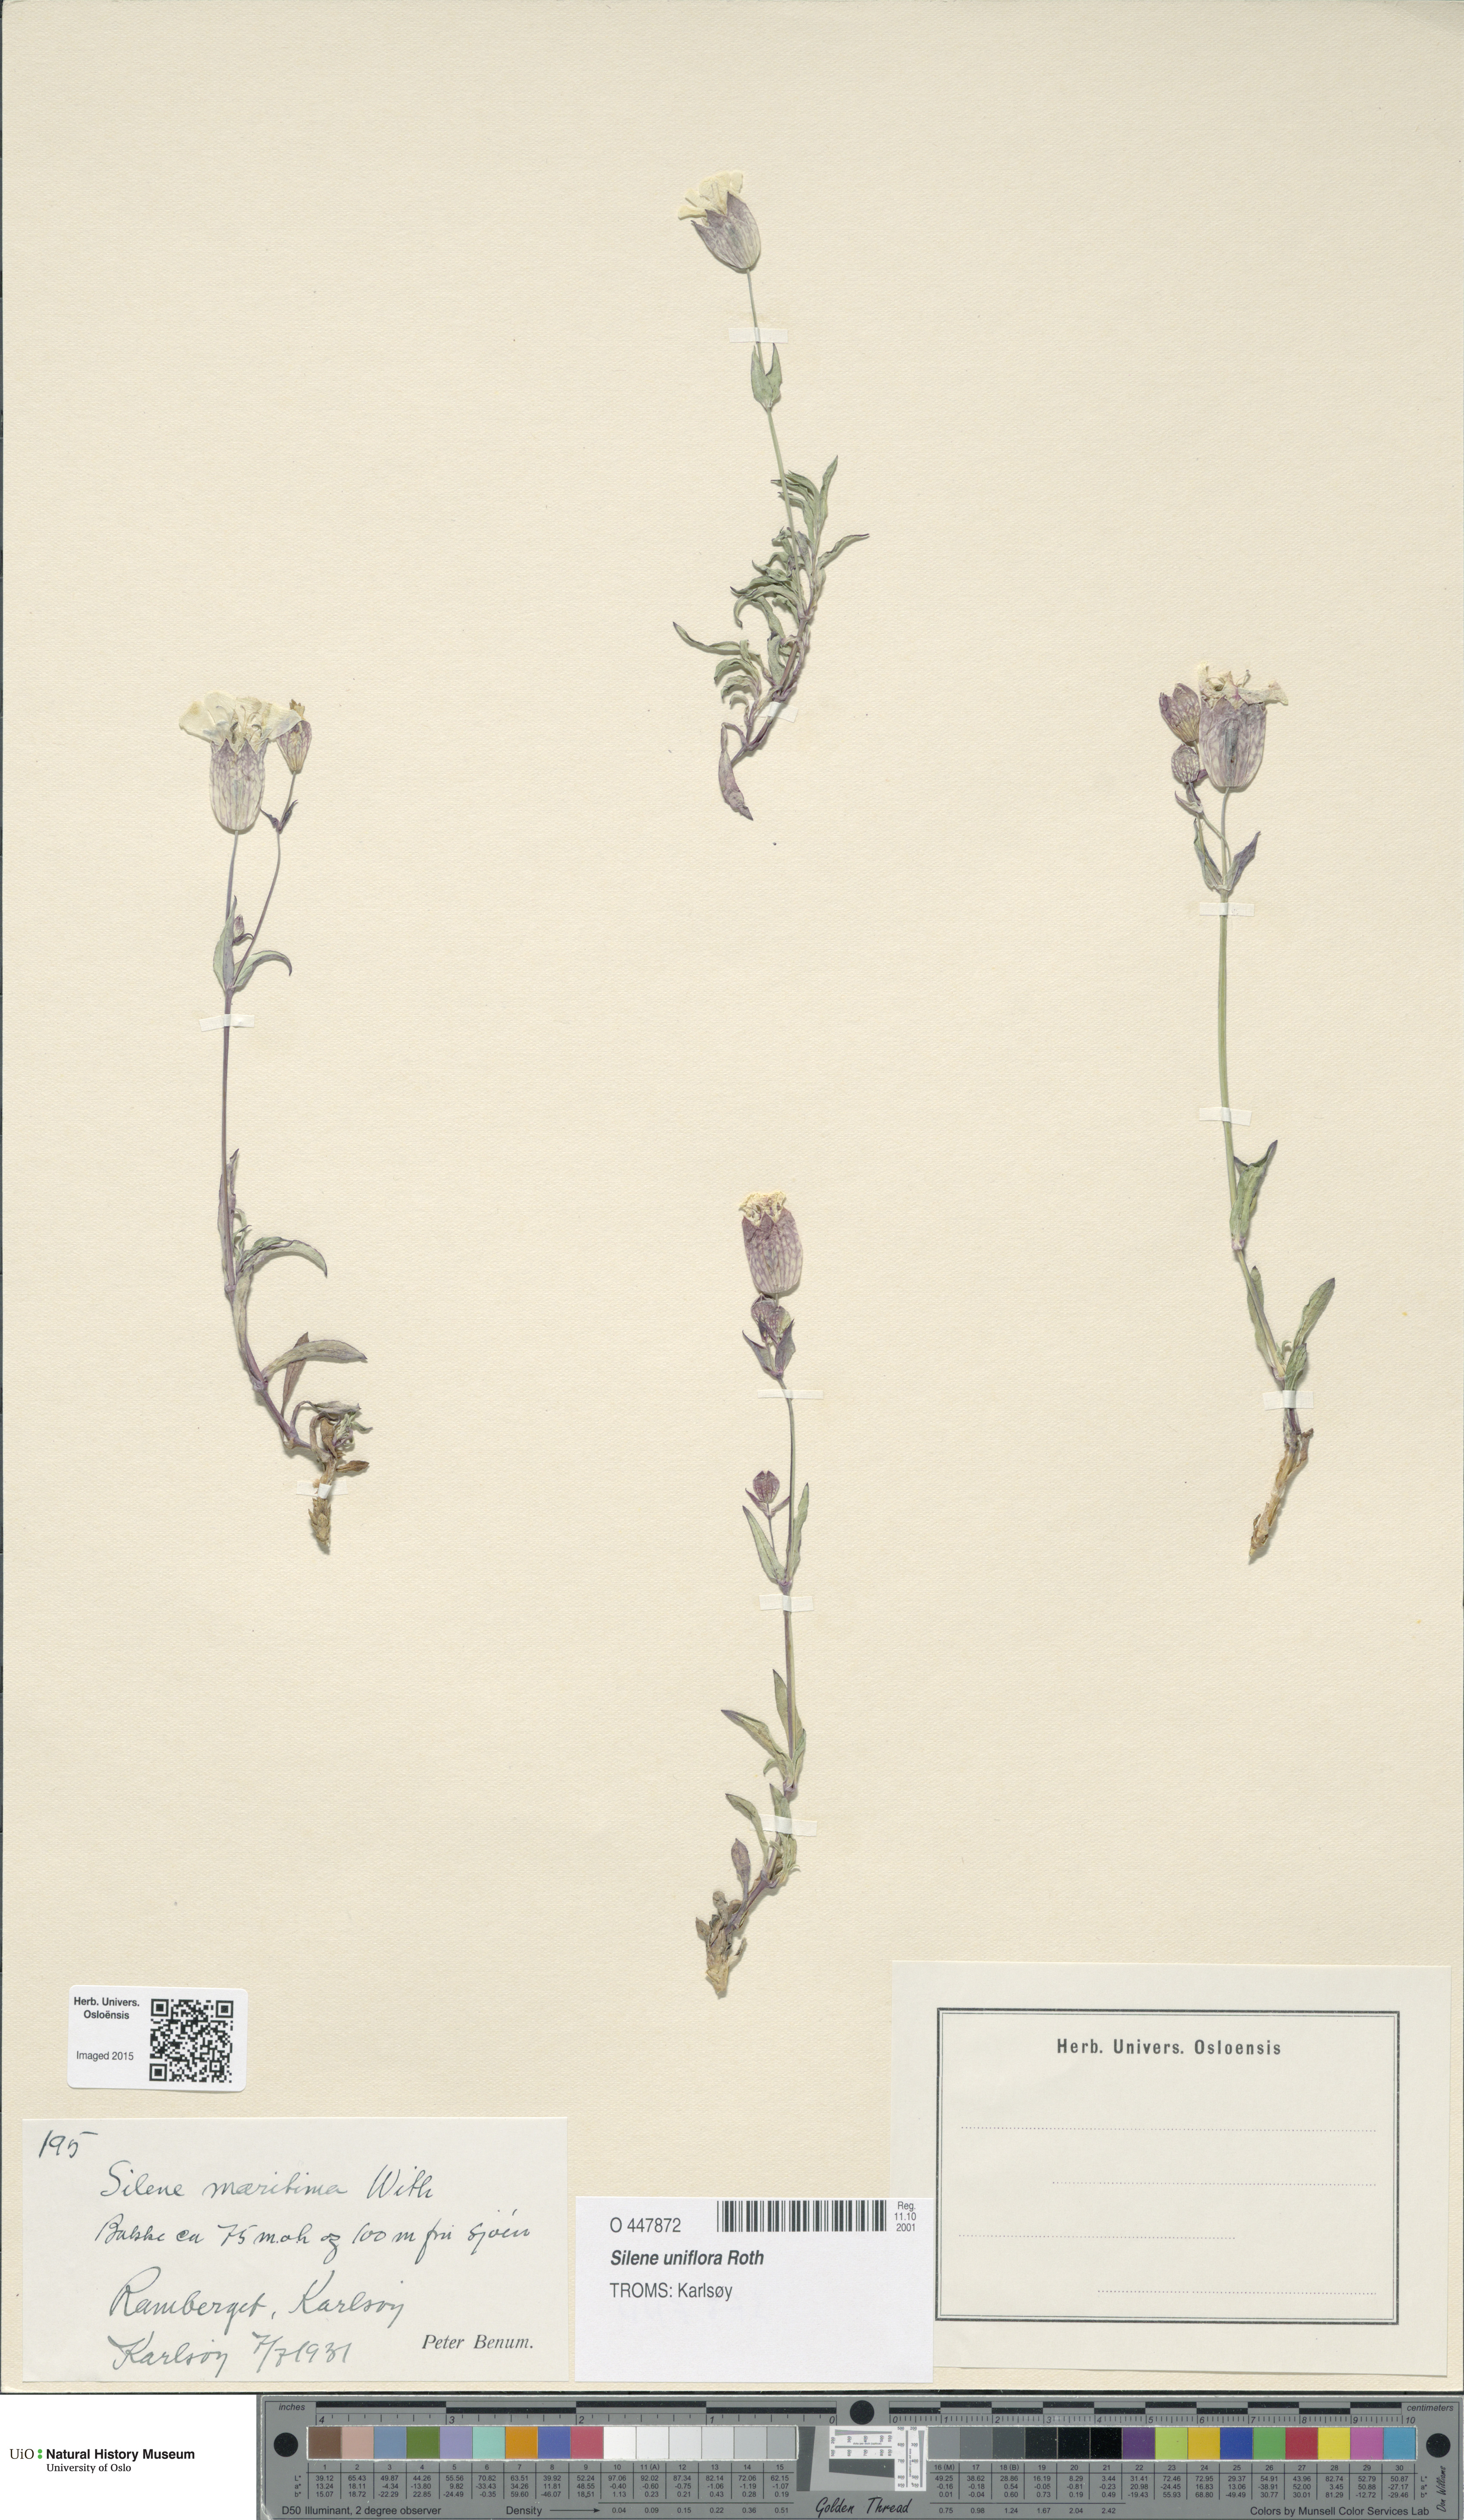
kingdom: Plantae
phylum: Tracheophyta
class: Magnoliopsida
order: Caryophyllales
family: Caryophyllaceae
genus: Silene
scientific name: Silene uniflora
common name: Sea campion
